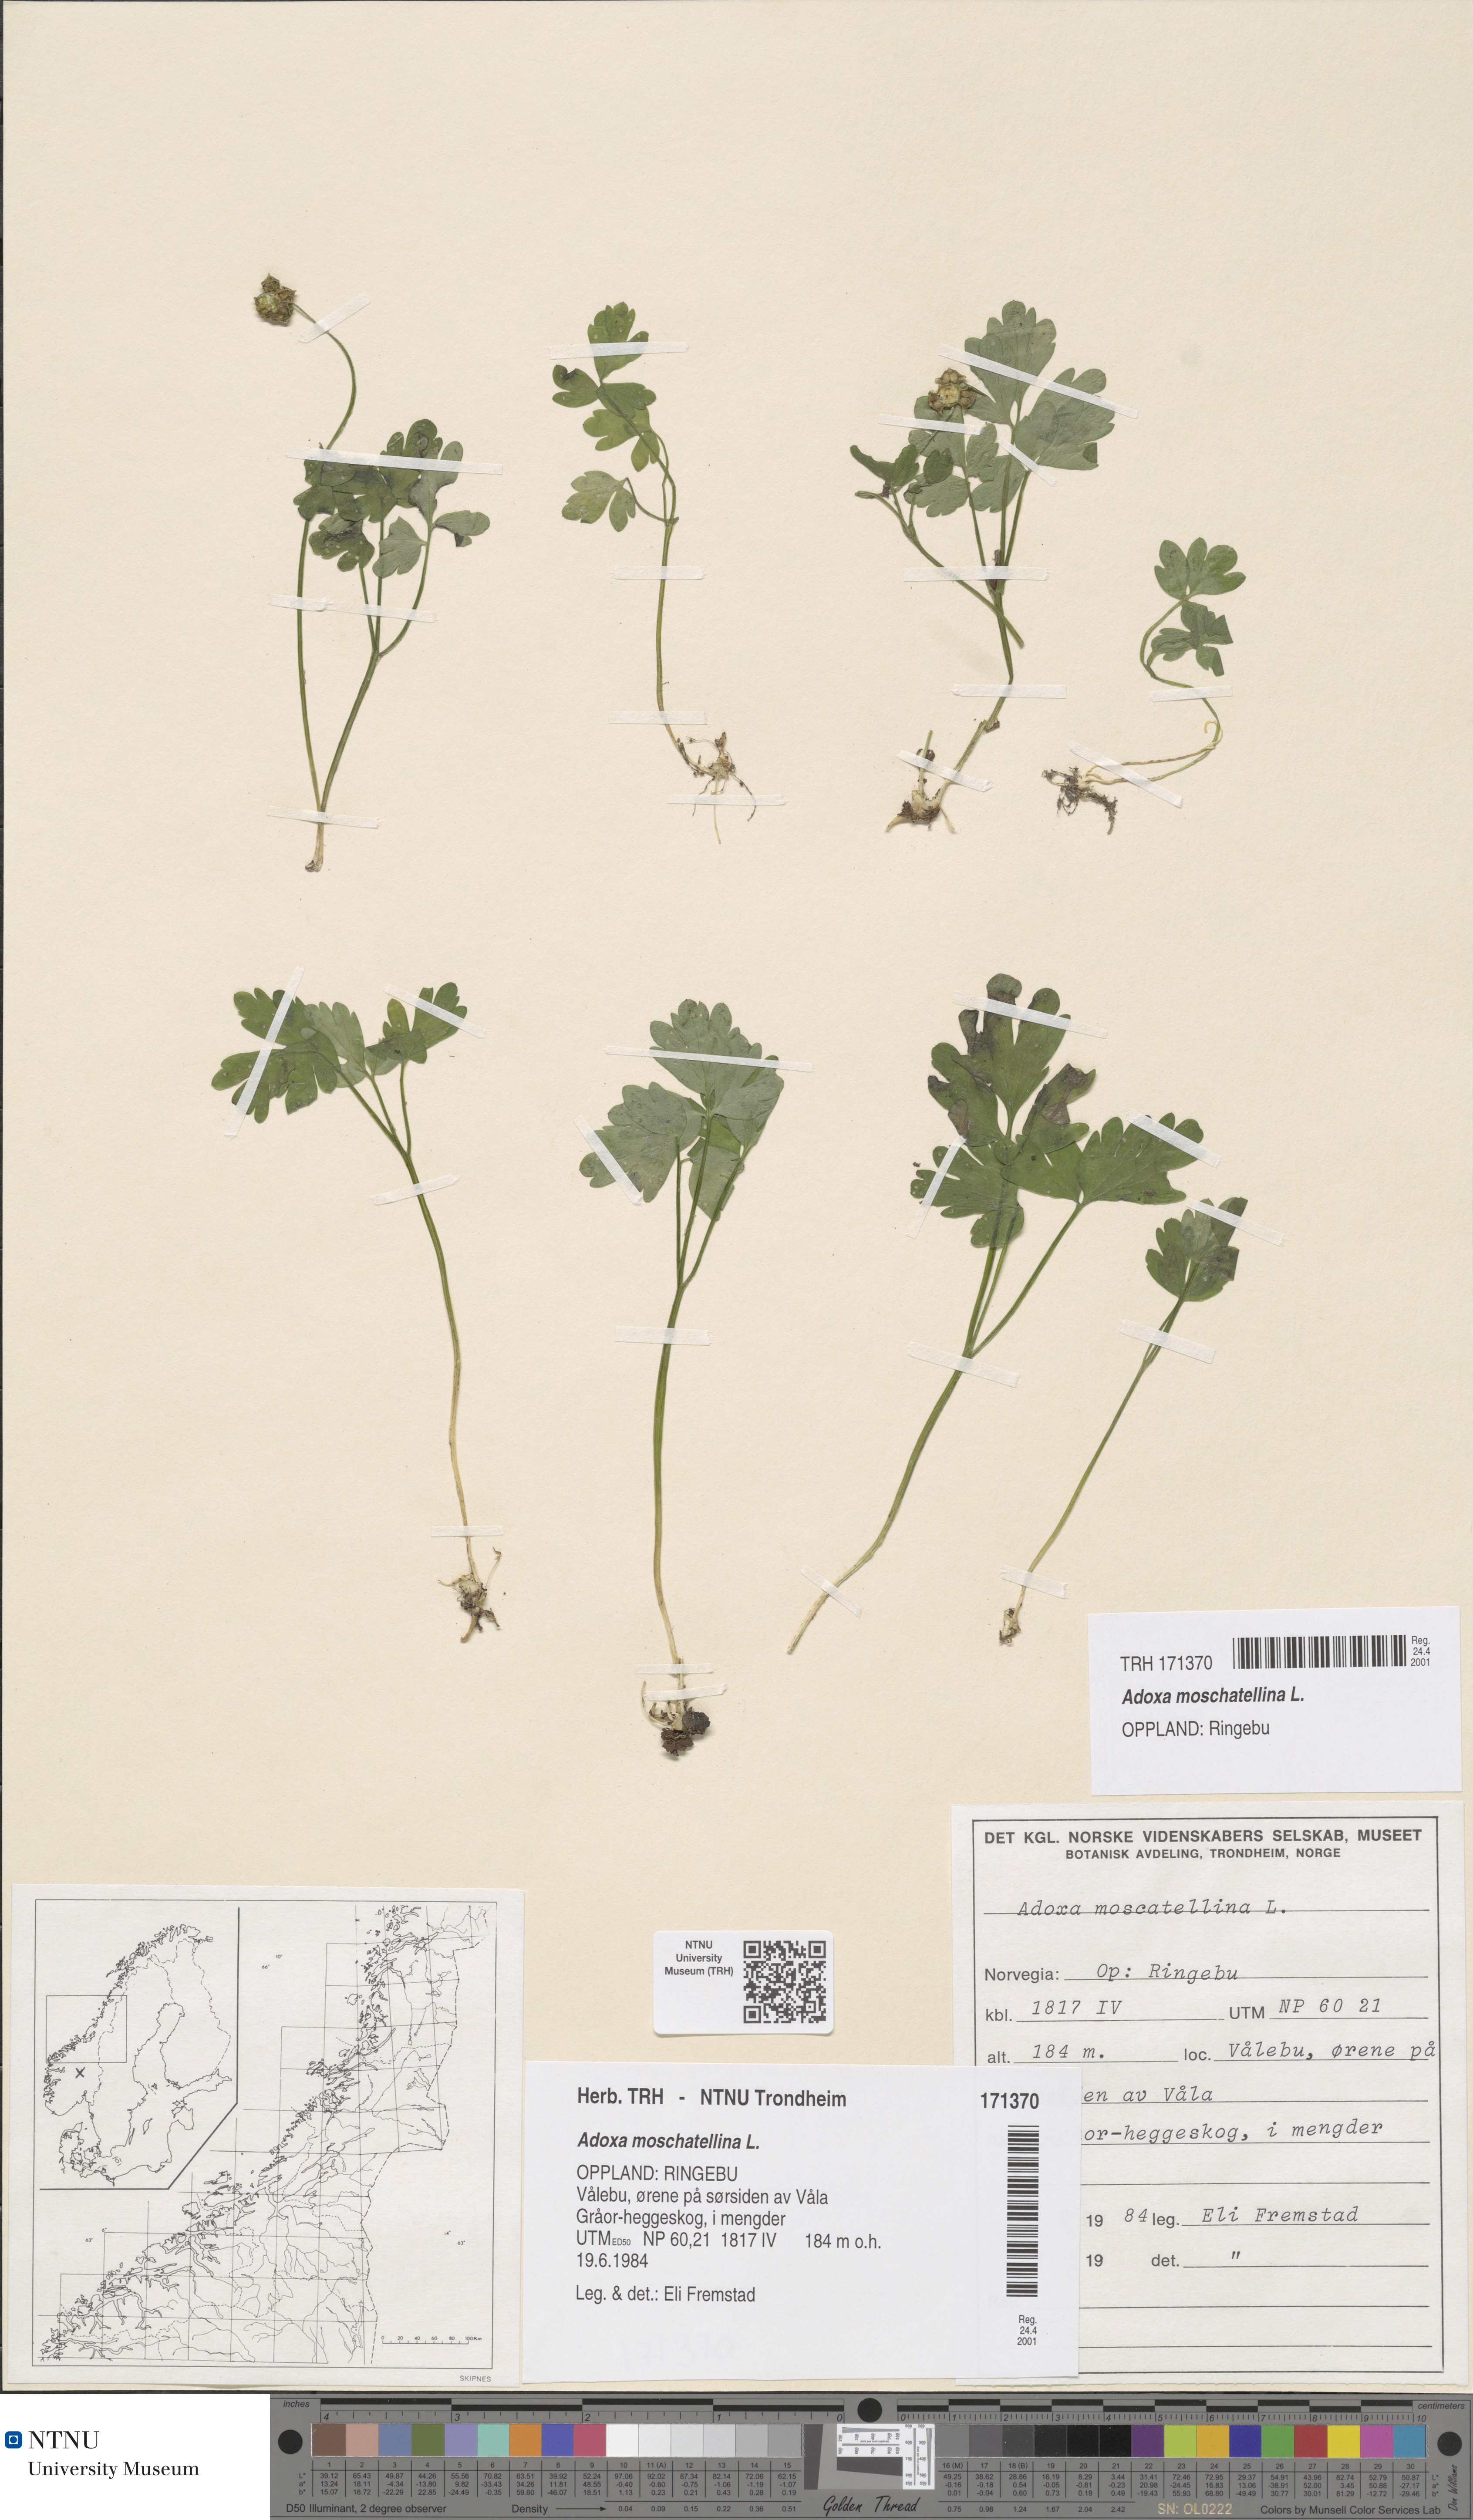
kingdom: Plantae
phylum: Tracheophyta
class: Magnoliopsida
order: Dipsacales
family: Viburnaceae
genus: Adoxa
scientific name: Adoxa moschatellina
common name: Moschatel
